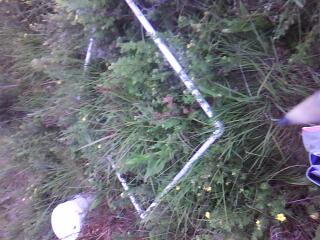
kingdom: Plantae
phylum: Tracheophyta
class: Liliopsida
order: Poales
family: Poaceae
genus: Dichanthelium
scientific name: Dichanthelium implicatum
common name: Slender-stemmed panicgrass
